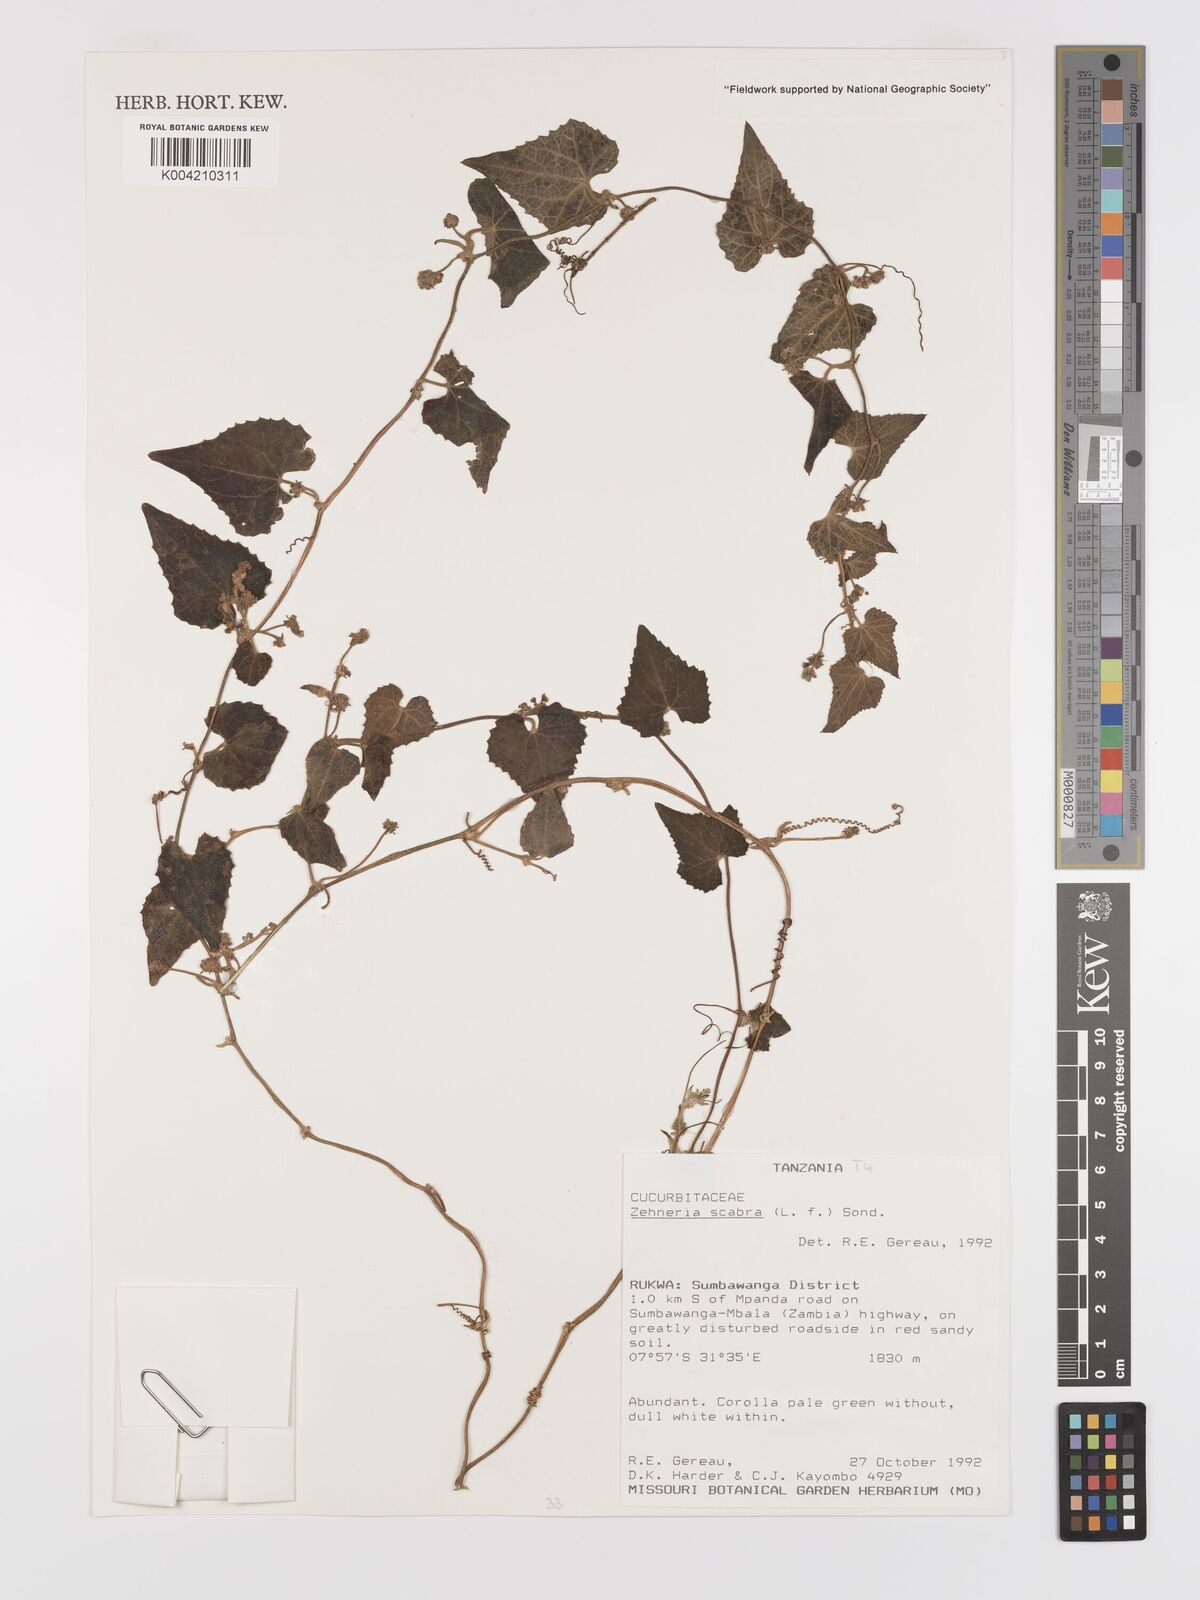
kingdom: Plantae
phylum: Tracheophyta
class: Magnoliopsida
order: Cucurbitales
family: Cucurbitaceae
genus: Zehneria
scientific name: Zehneria scabra
